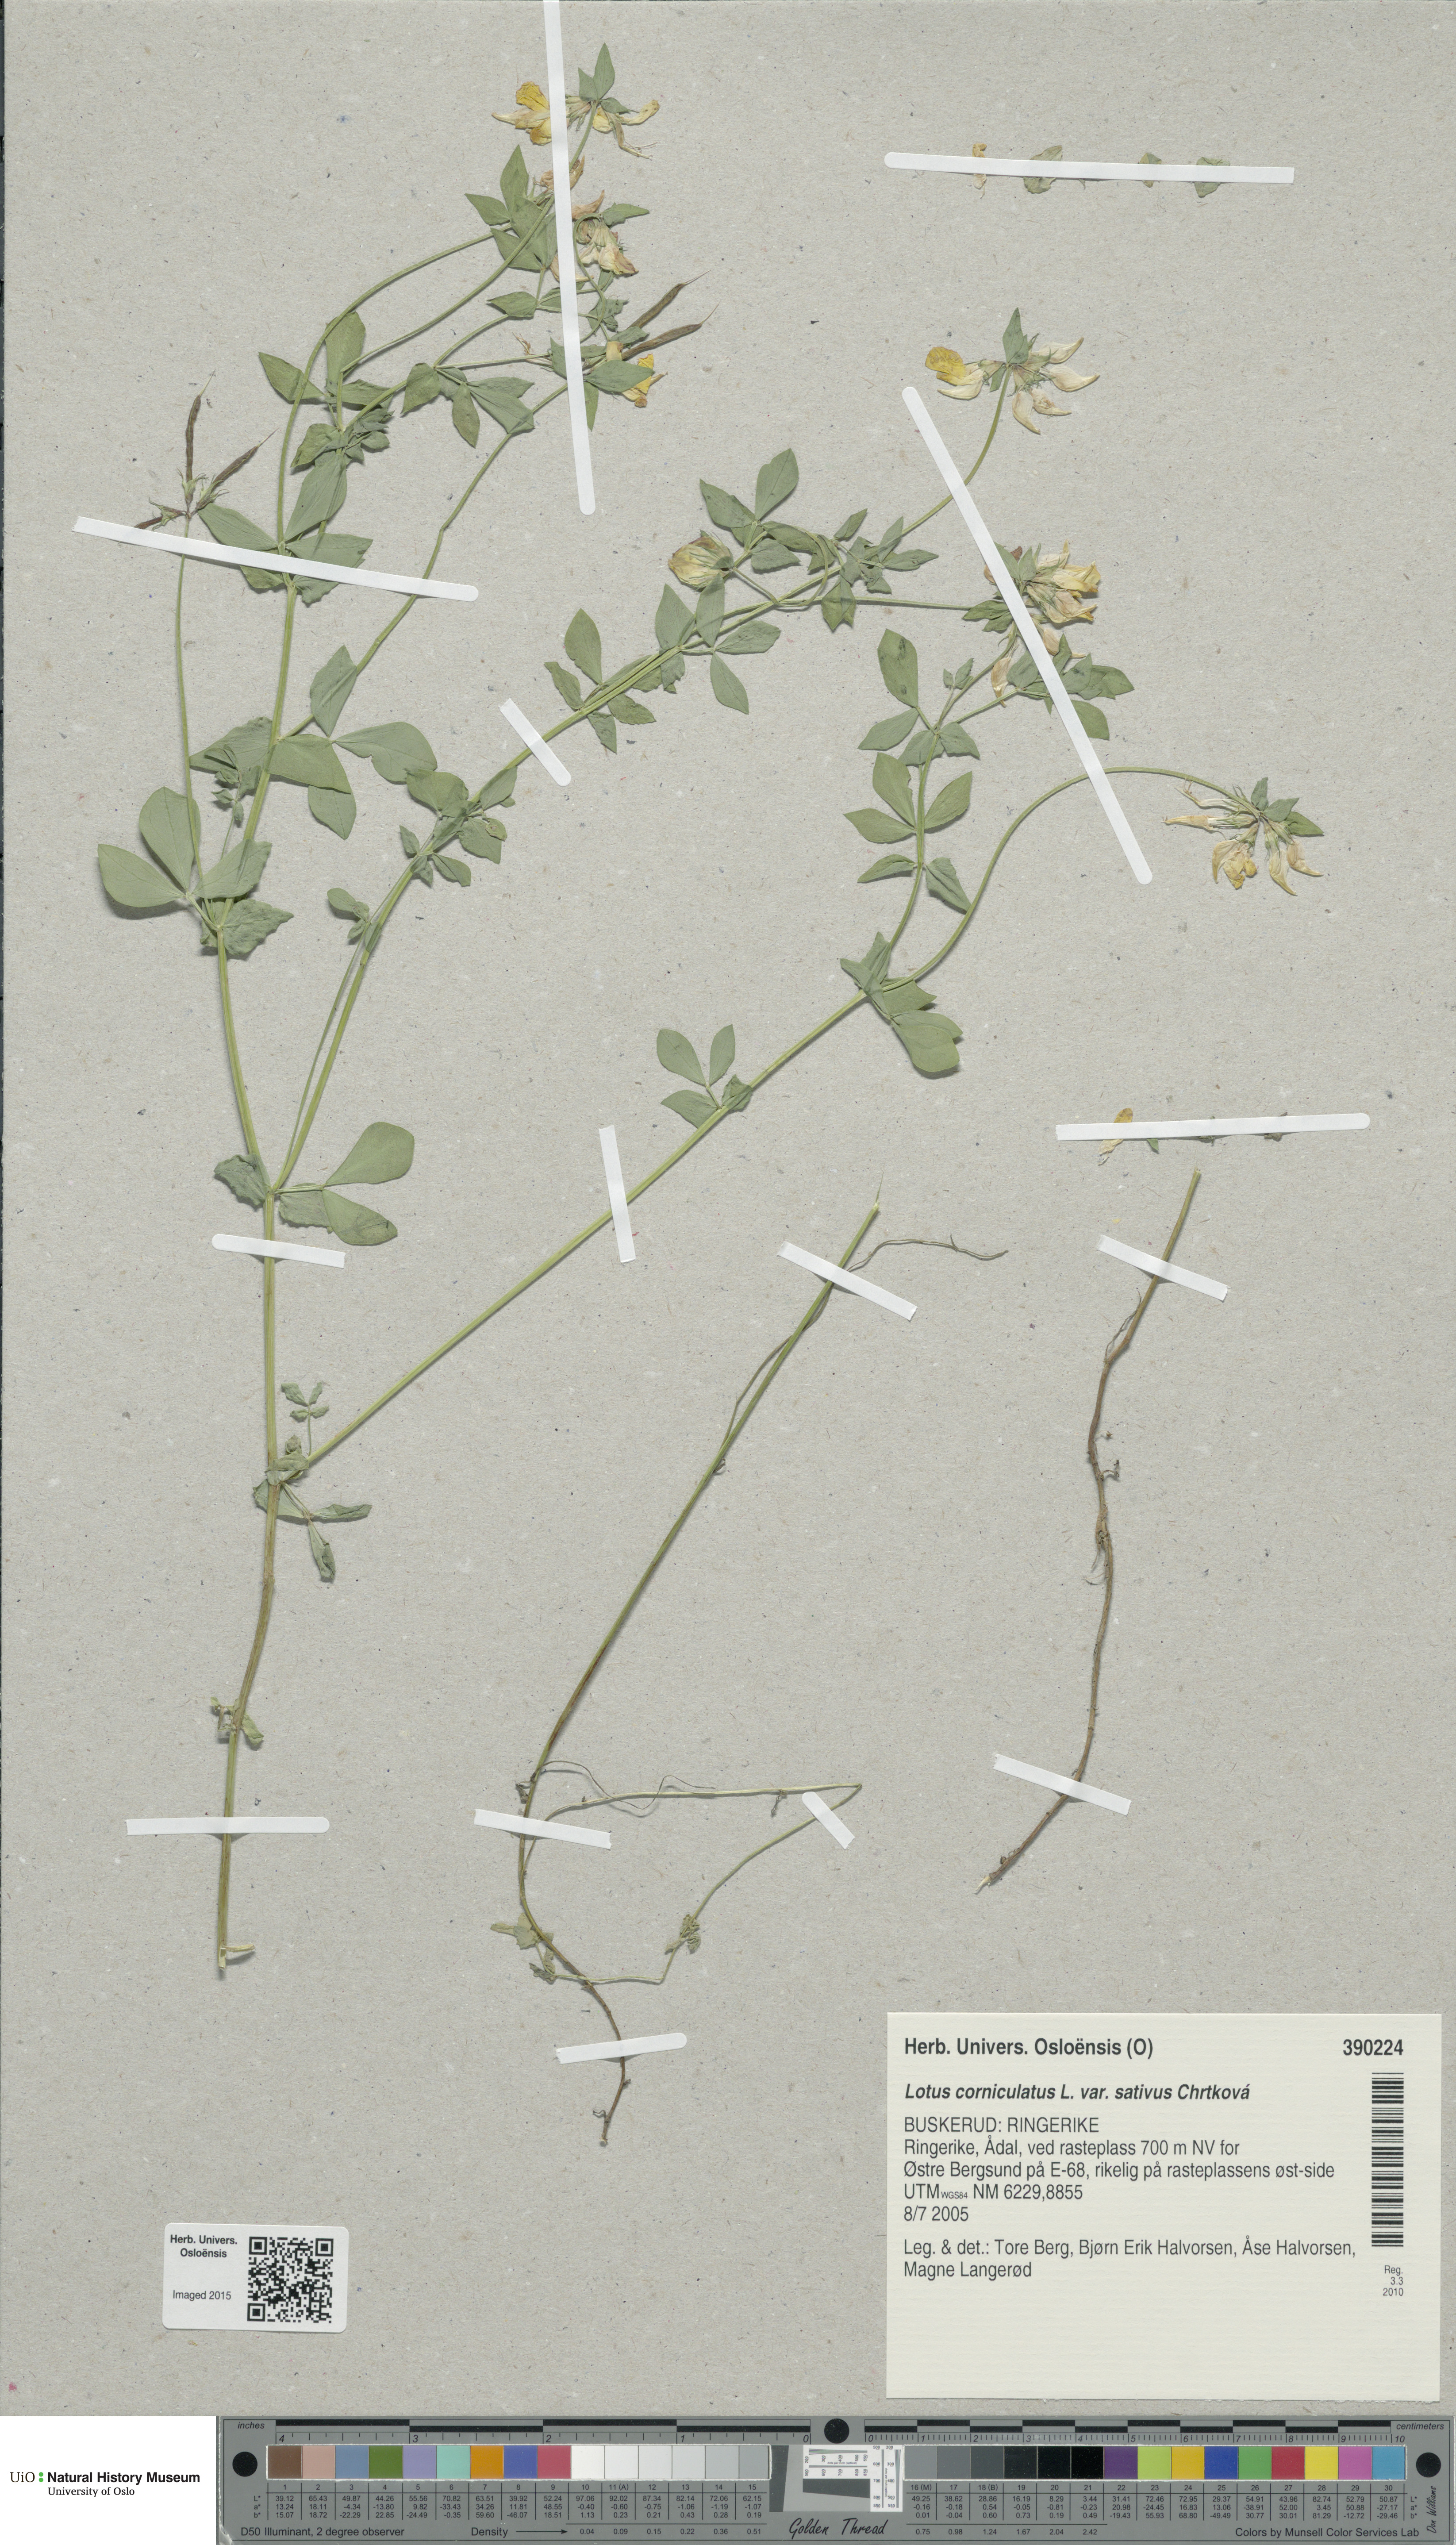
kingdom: Plantae
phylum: Tracheophyta
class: Magnoliopsida
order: Fabales
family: Fabaceae
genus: Lotus
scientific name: Lotus corniculatus
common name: Common bird's-foot-trefoil
